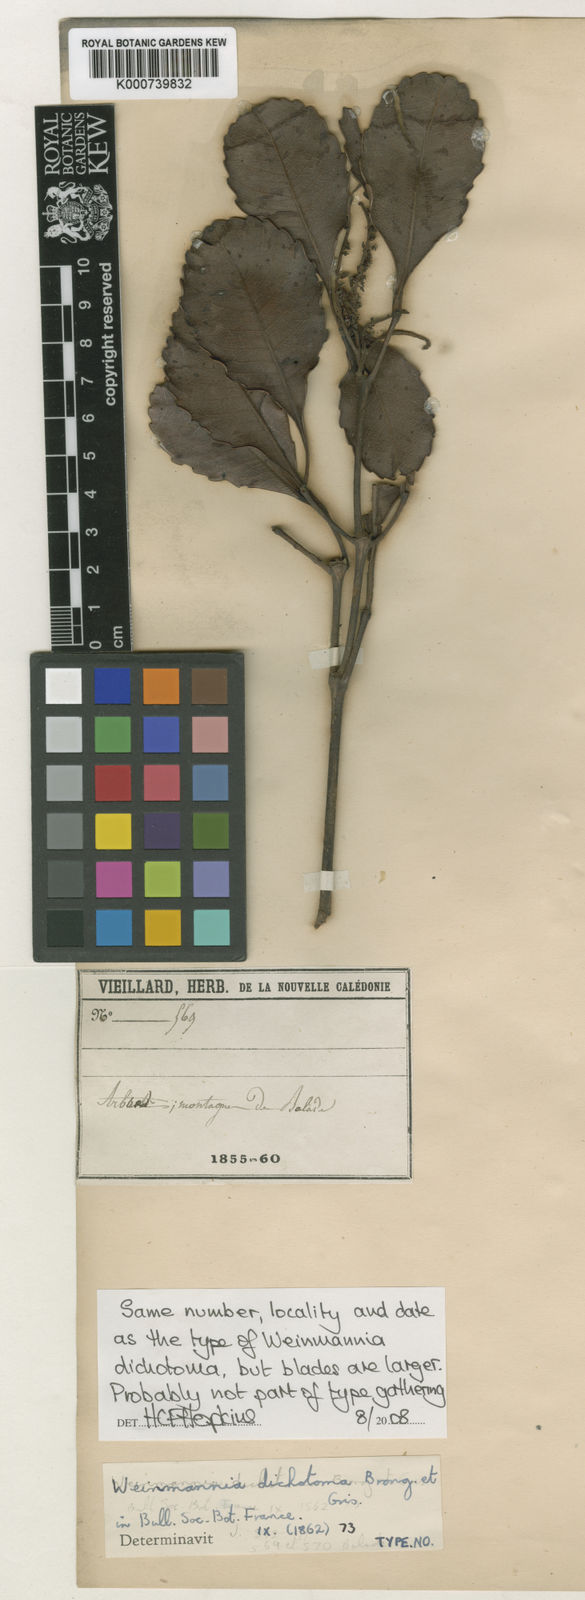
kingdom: Plantae
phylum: Tracheophyta
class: Magnoliopsida
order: Oxalidales
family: Cunoniaceae
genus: Pterophylla
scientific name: Pterophylla dichotoma
